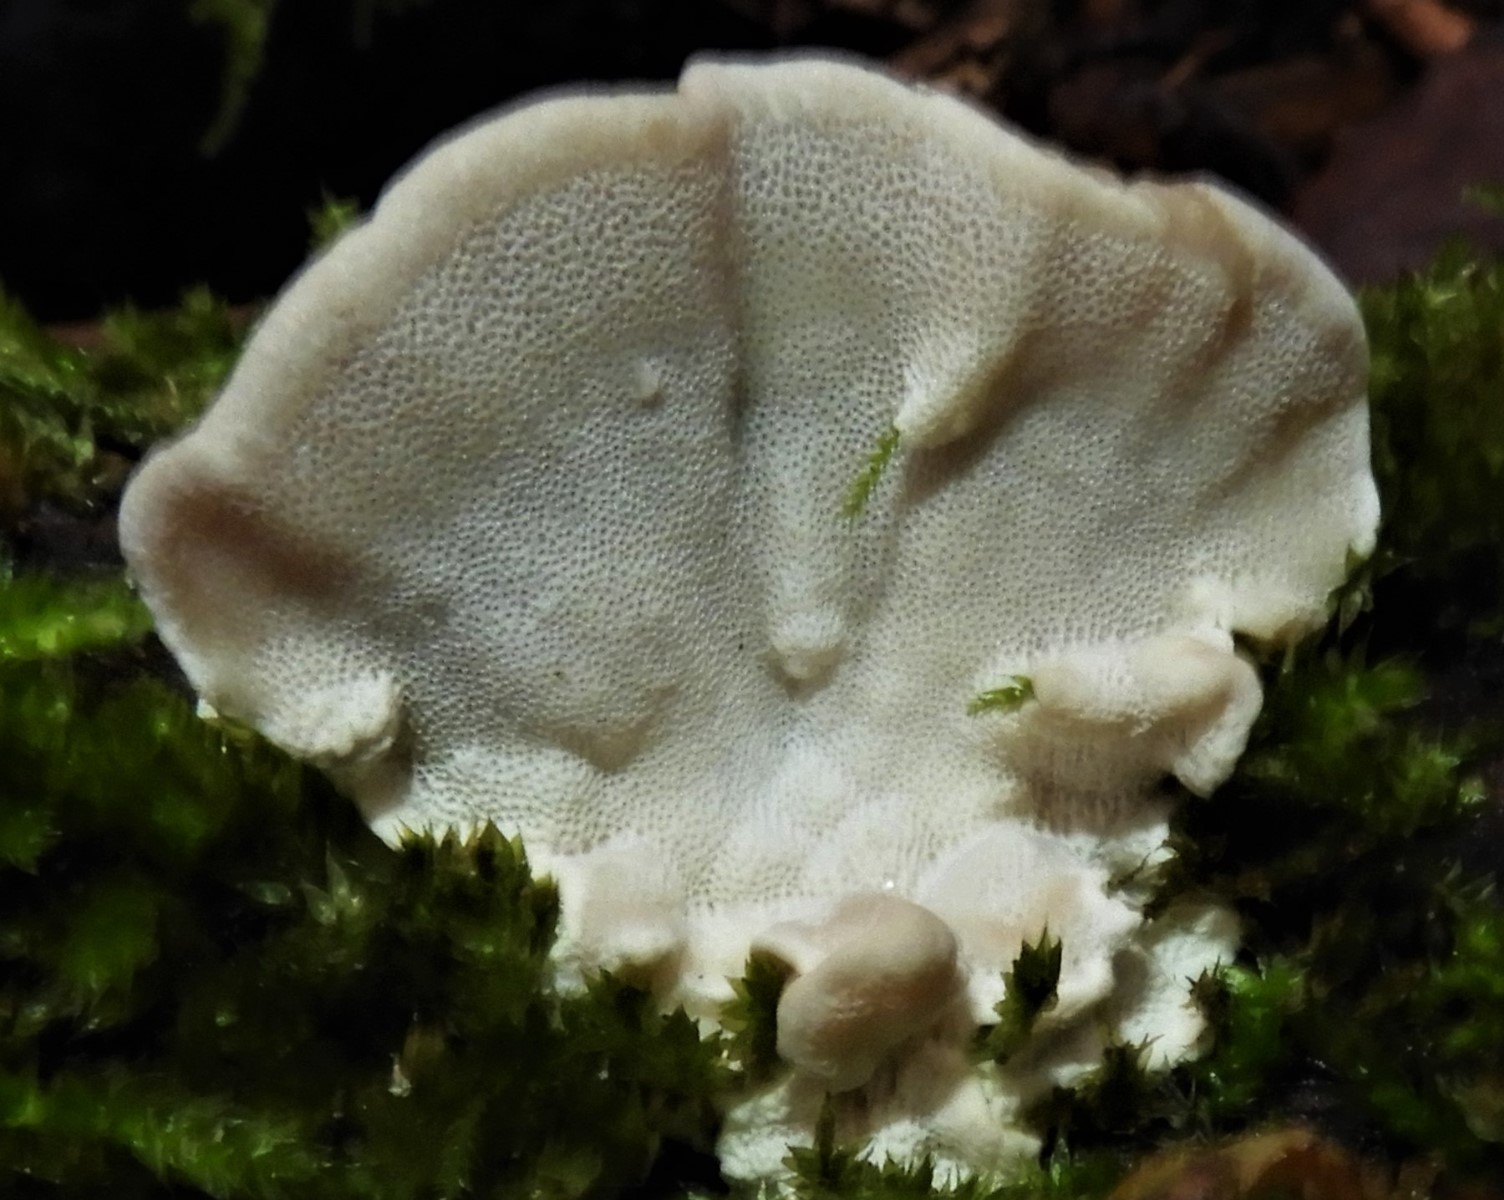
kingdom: Fungi
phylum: Basidiomycota
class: Agaricomycetes
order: Polyporales
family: Polyporaceae
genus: Trametes
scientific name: Trametes versicolor
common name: broget læderporesvamp
